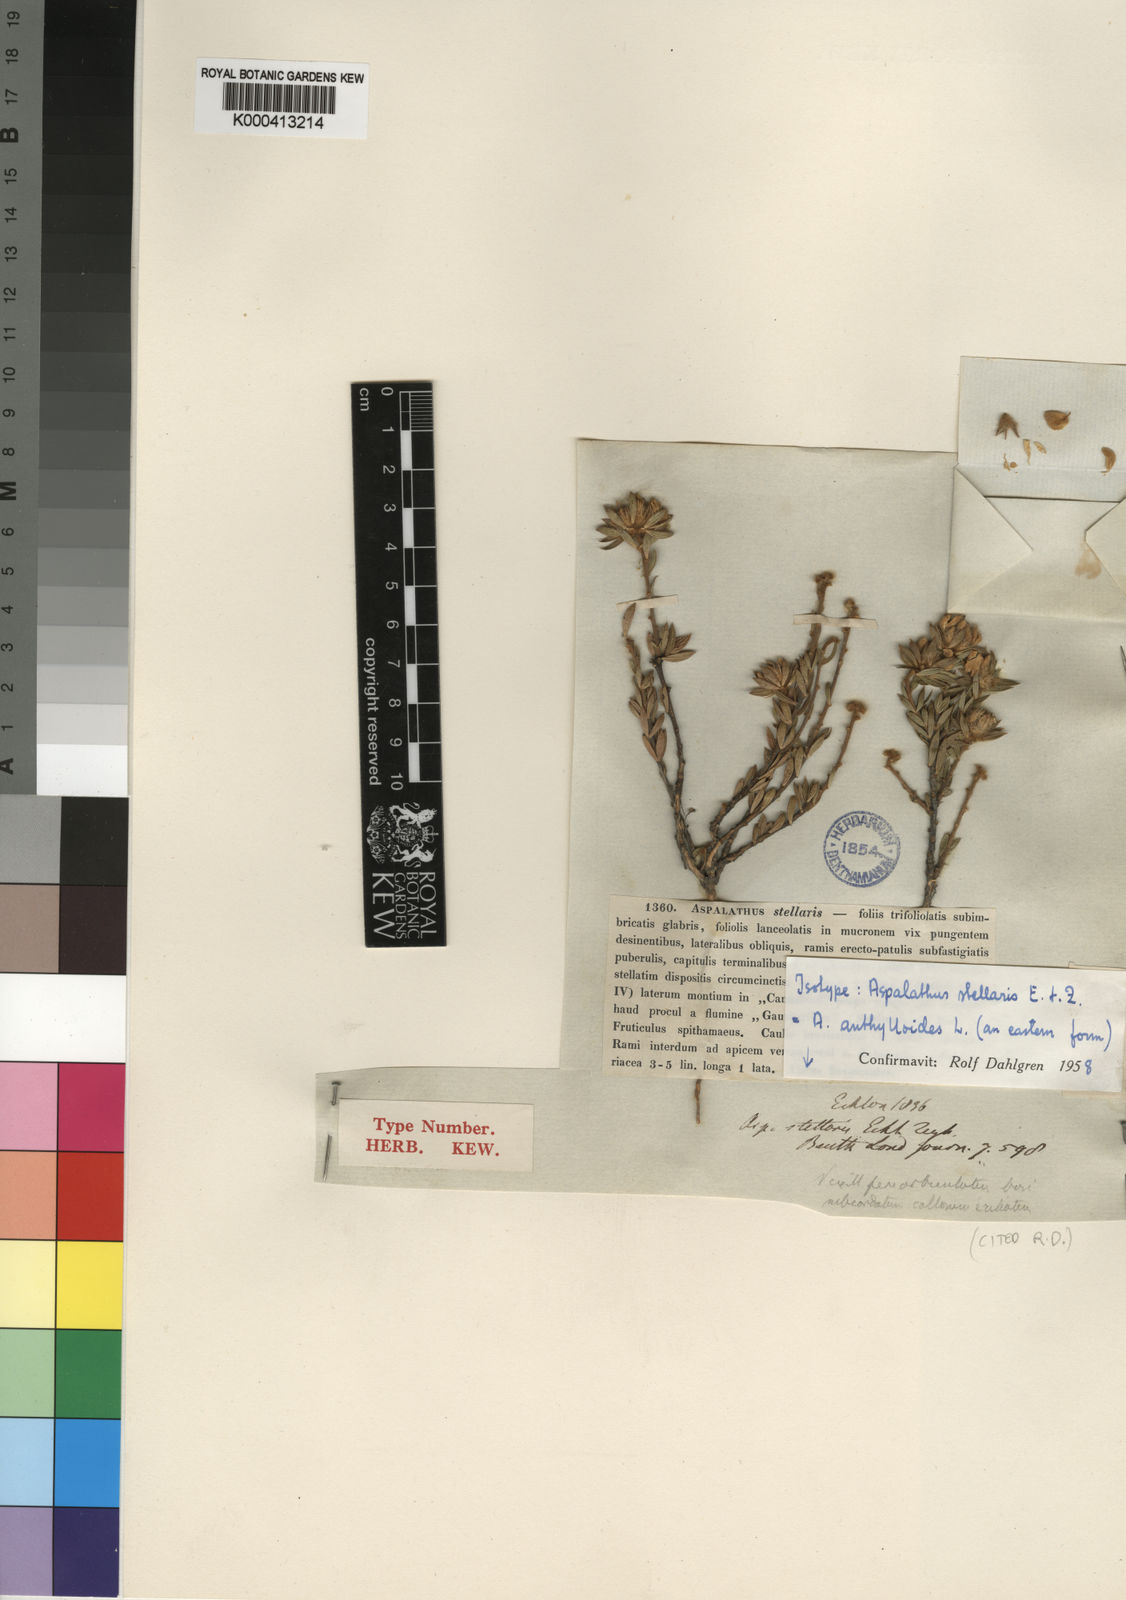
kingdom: Plantae
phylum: Tracheophyta
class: Magnoliopsida
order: Fabales
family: Fabaceae
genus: Aspalathus
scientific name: Aspalathus aspalathoides
